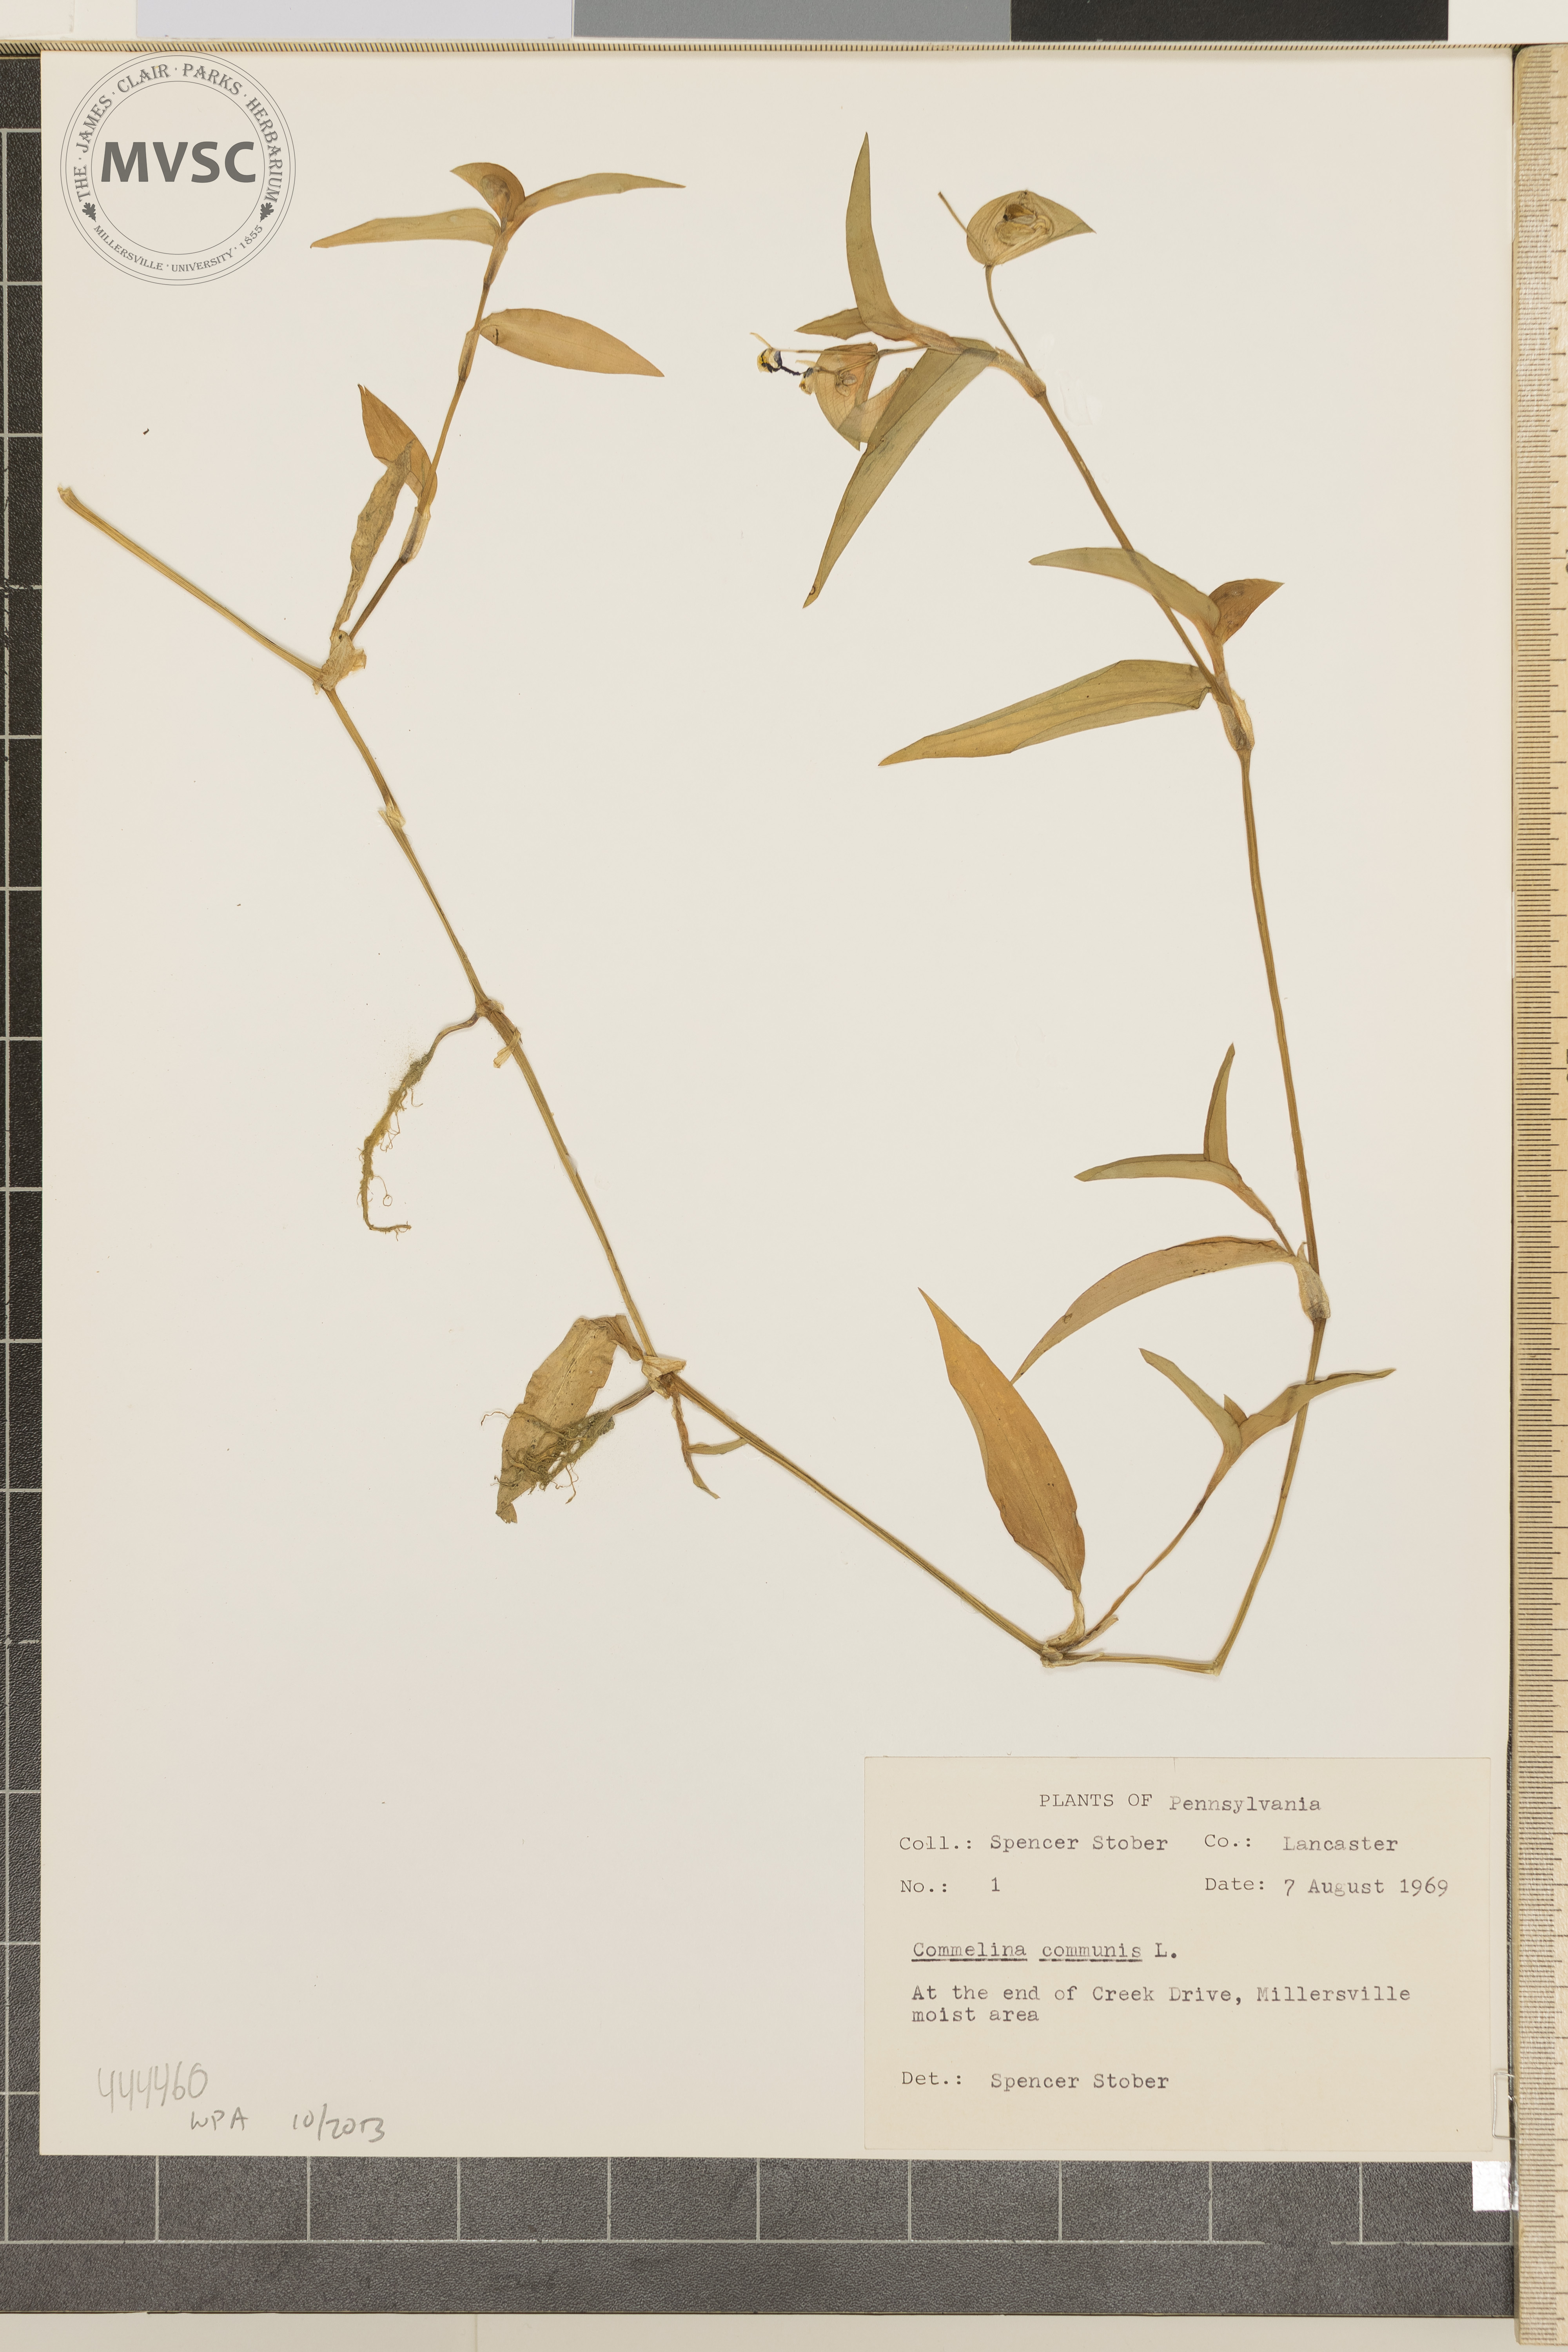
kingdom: Plantae
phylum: Tracheophyta
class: Liliopsida
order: Commelinales
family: Commelinaceae
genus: Commelina
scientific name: Commelina communis
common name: Asiatic dayflower
